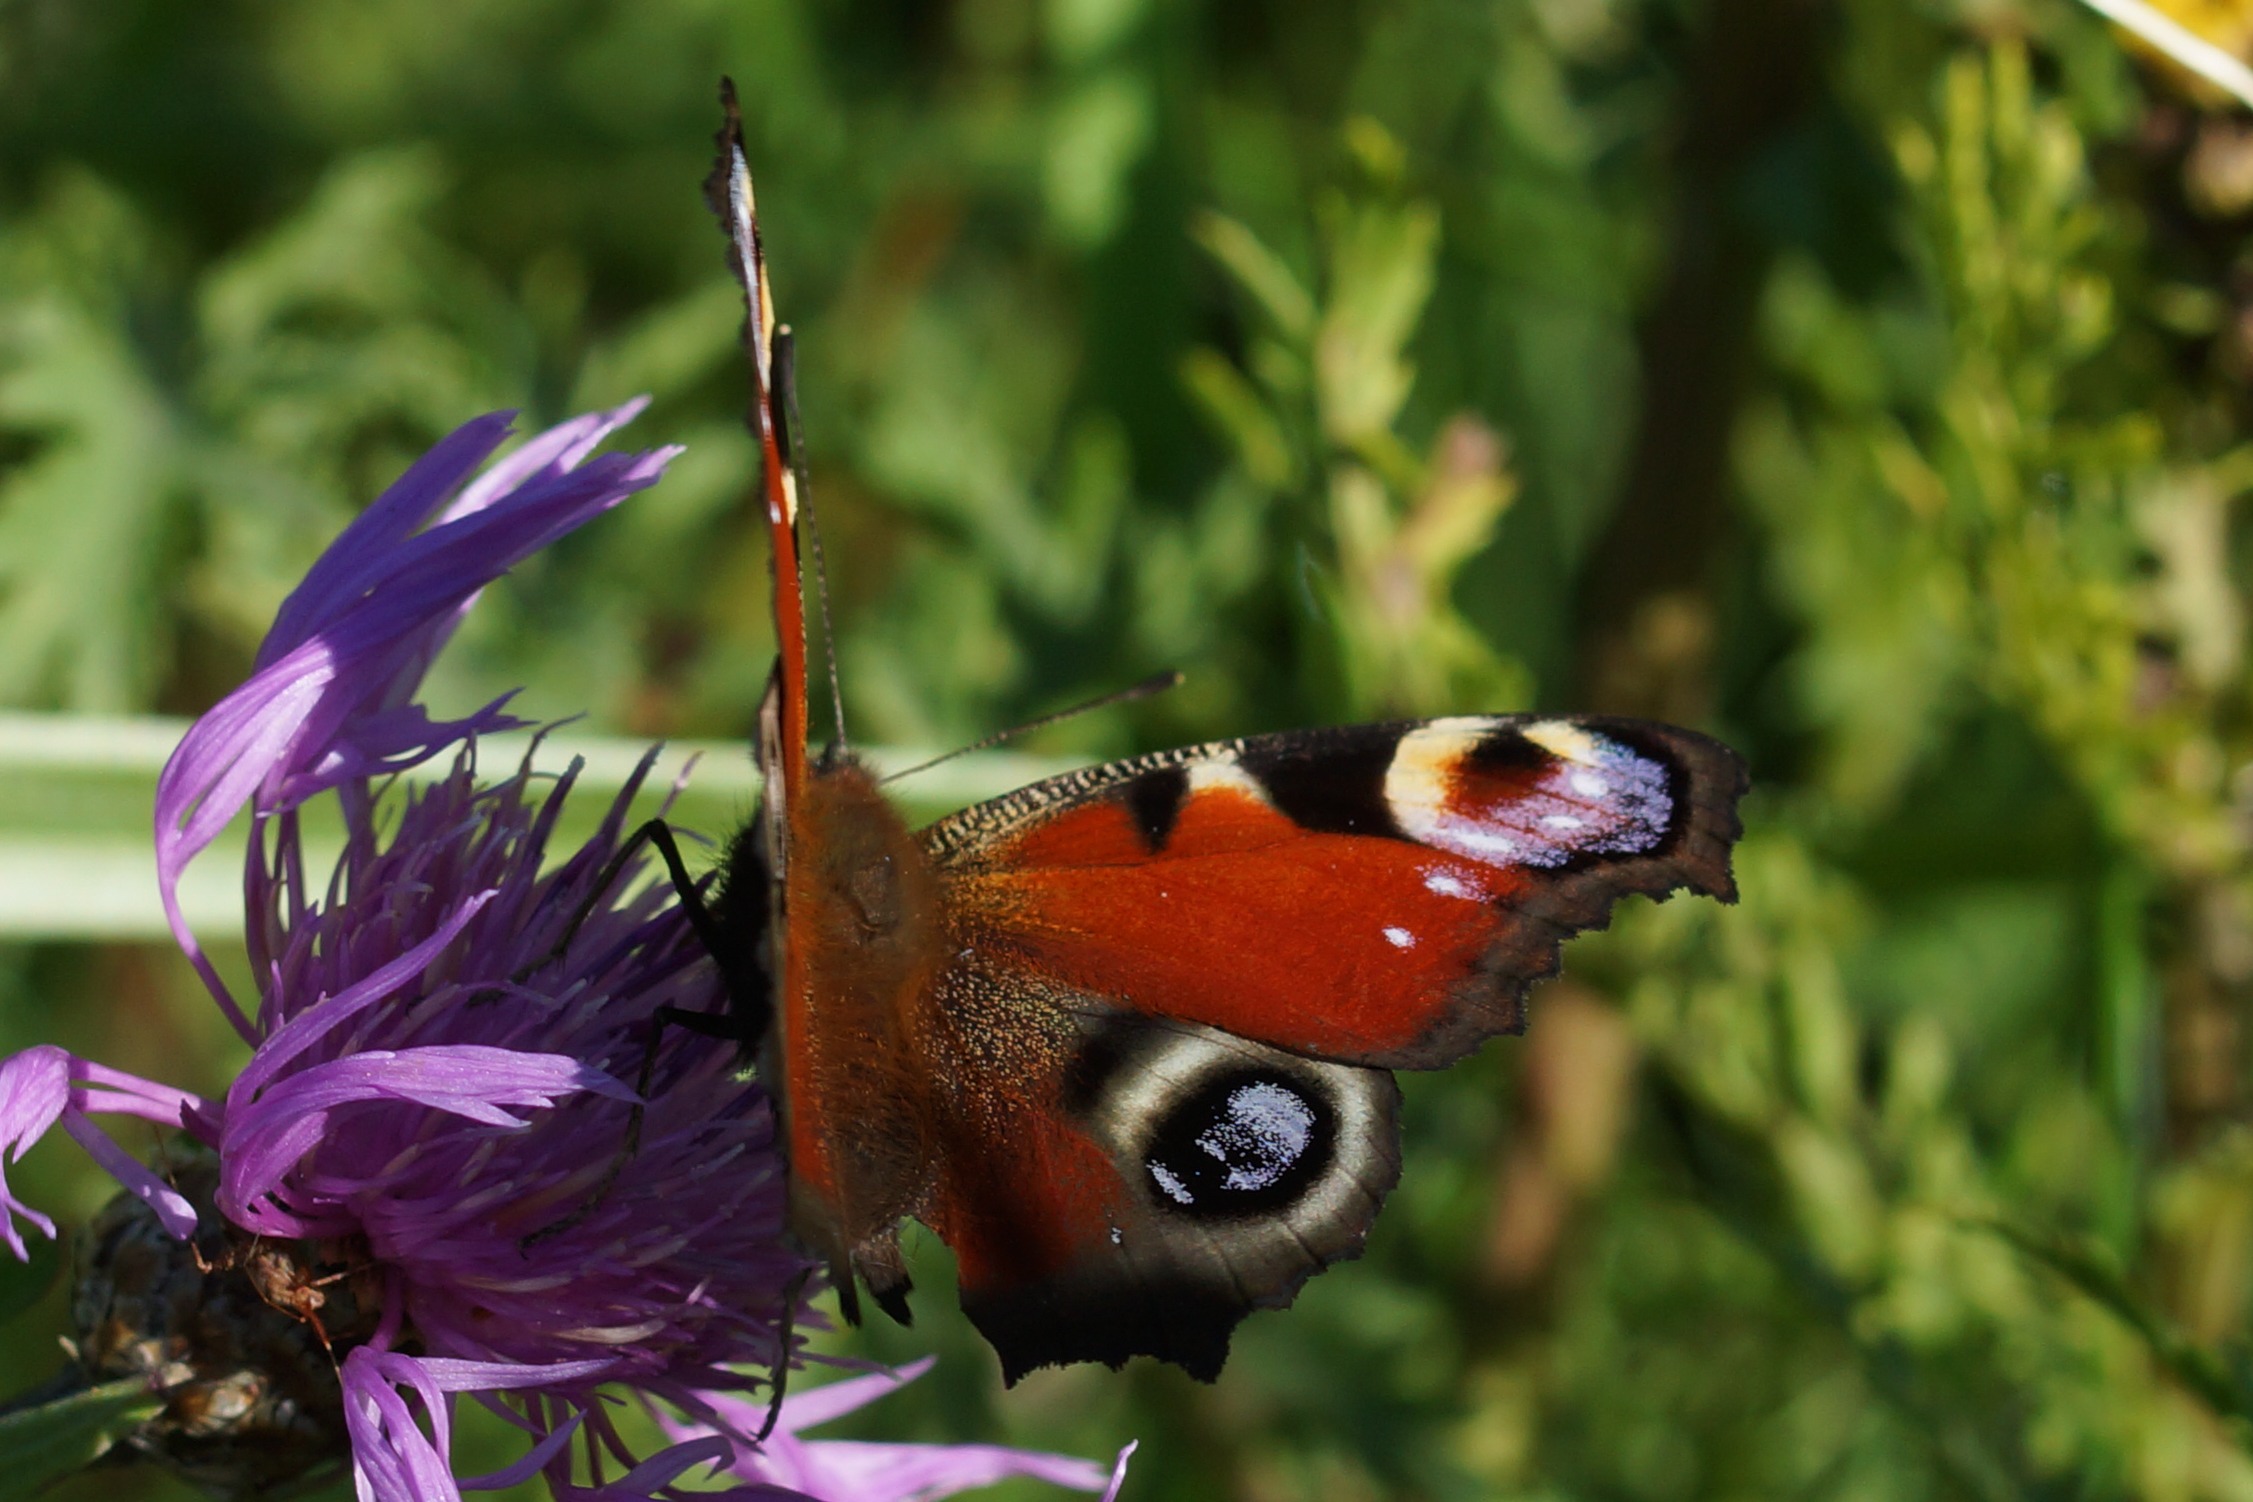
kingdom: Animalia
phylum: Arthropoda
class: Insecta
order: Lepidoptera
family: Nymphalidae
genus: Aglais
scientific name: Aglais io
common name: Dagpåfugleøje
